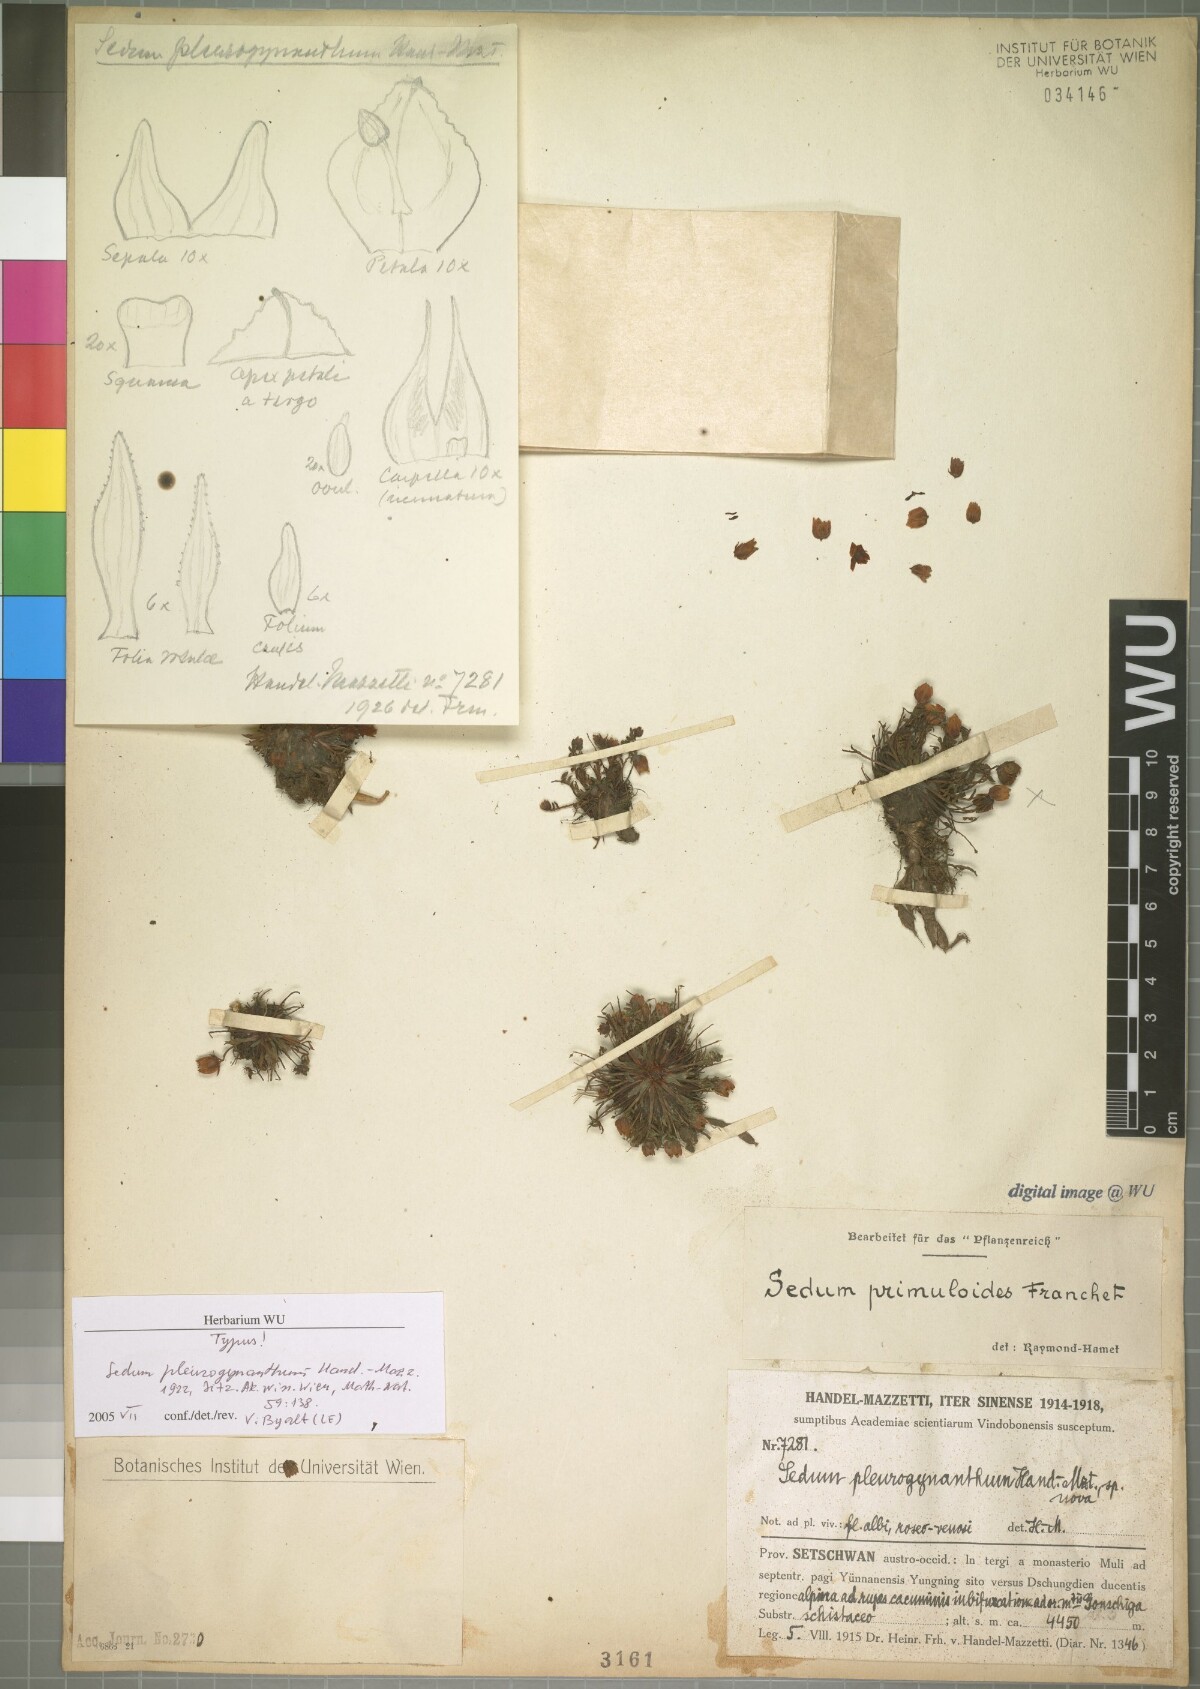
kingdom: Plantae
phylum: Tracheophyta
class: Magnoliopsida
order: Saxifragales
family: Crassulaceae
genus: Rhodiola
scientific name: Rhodiola primuloides
